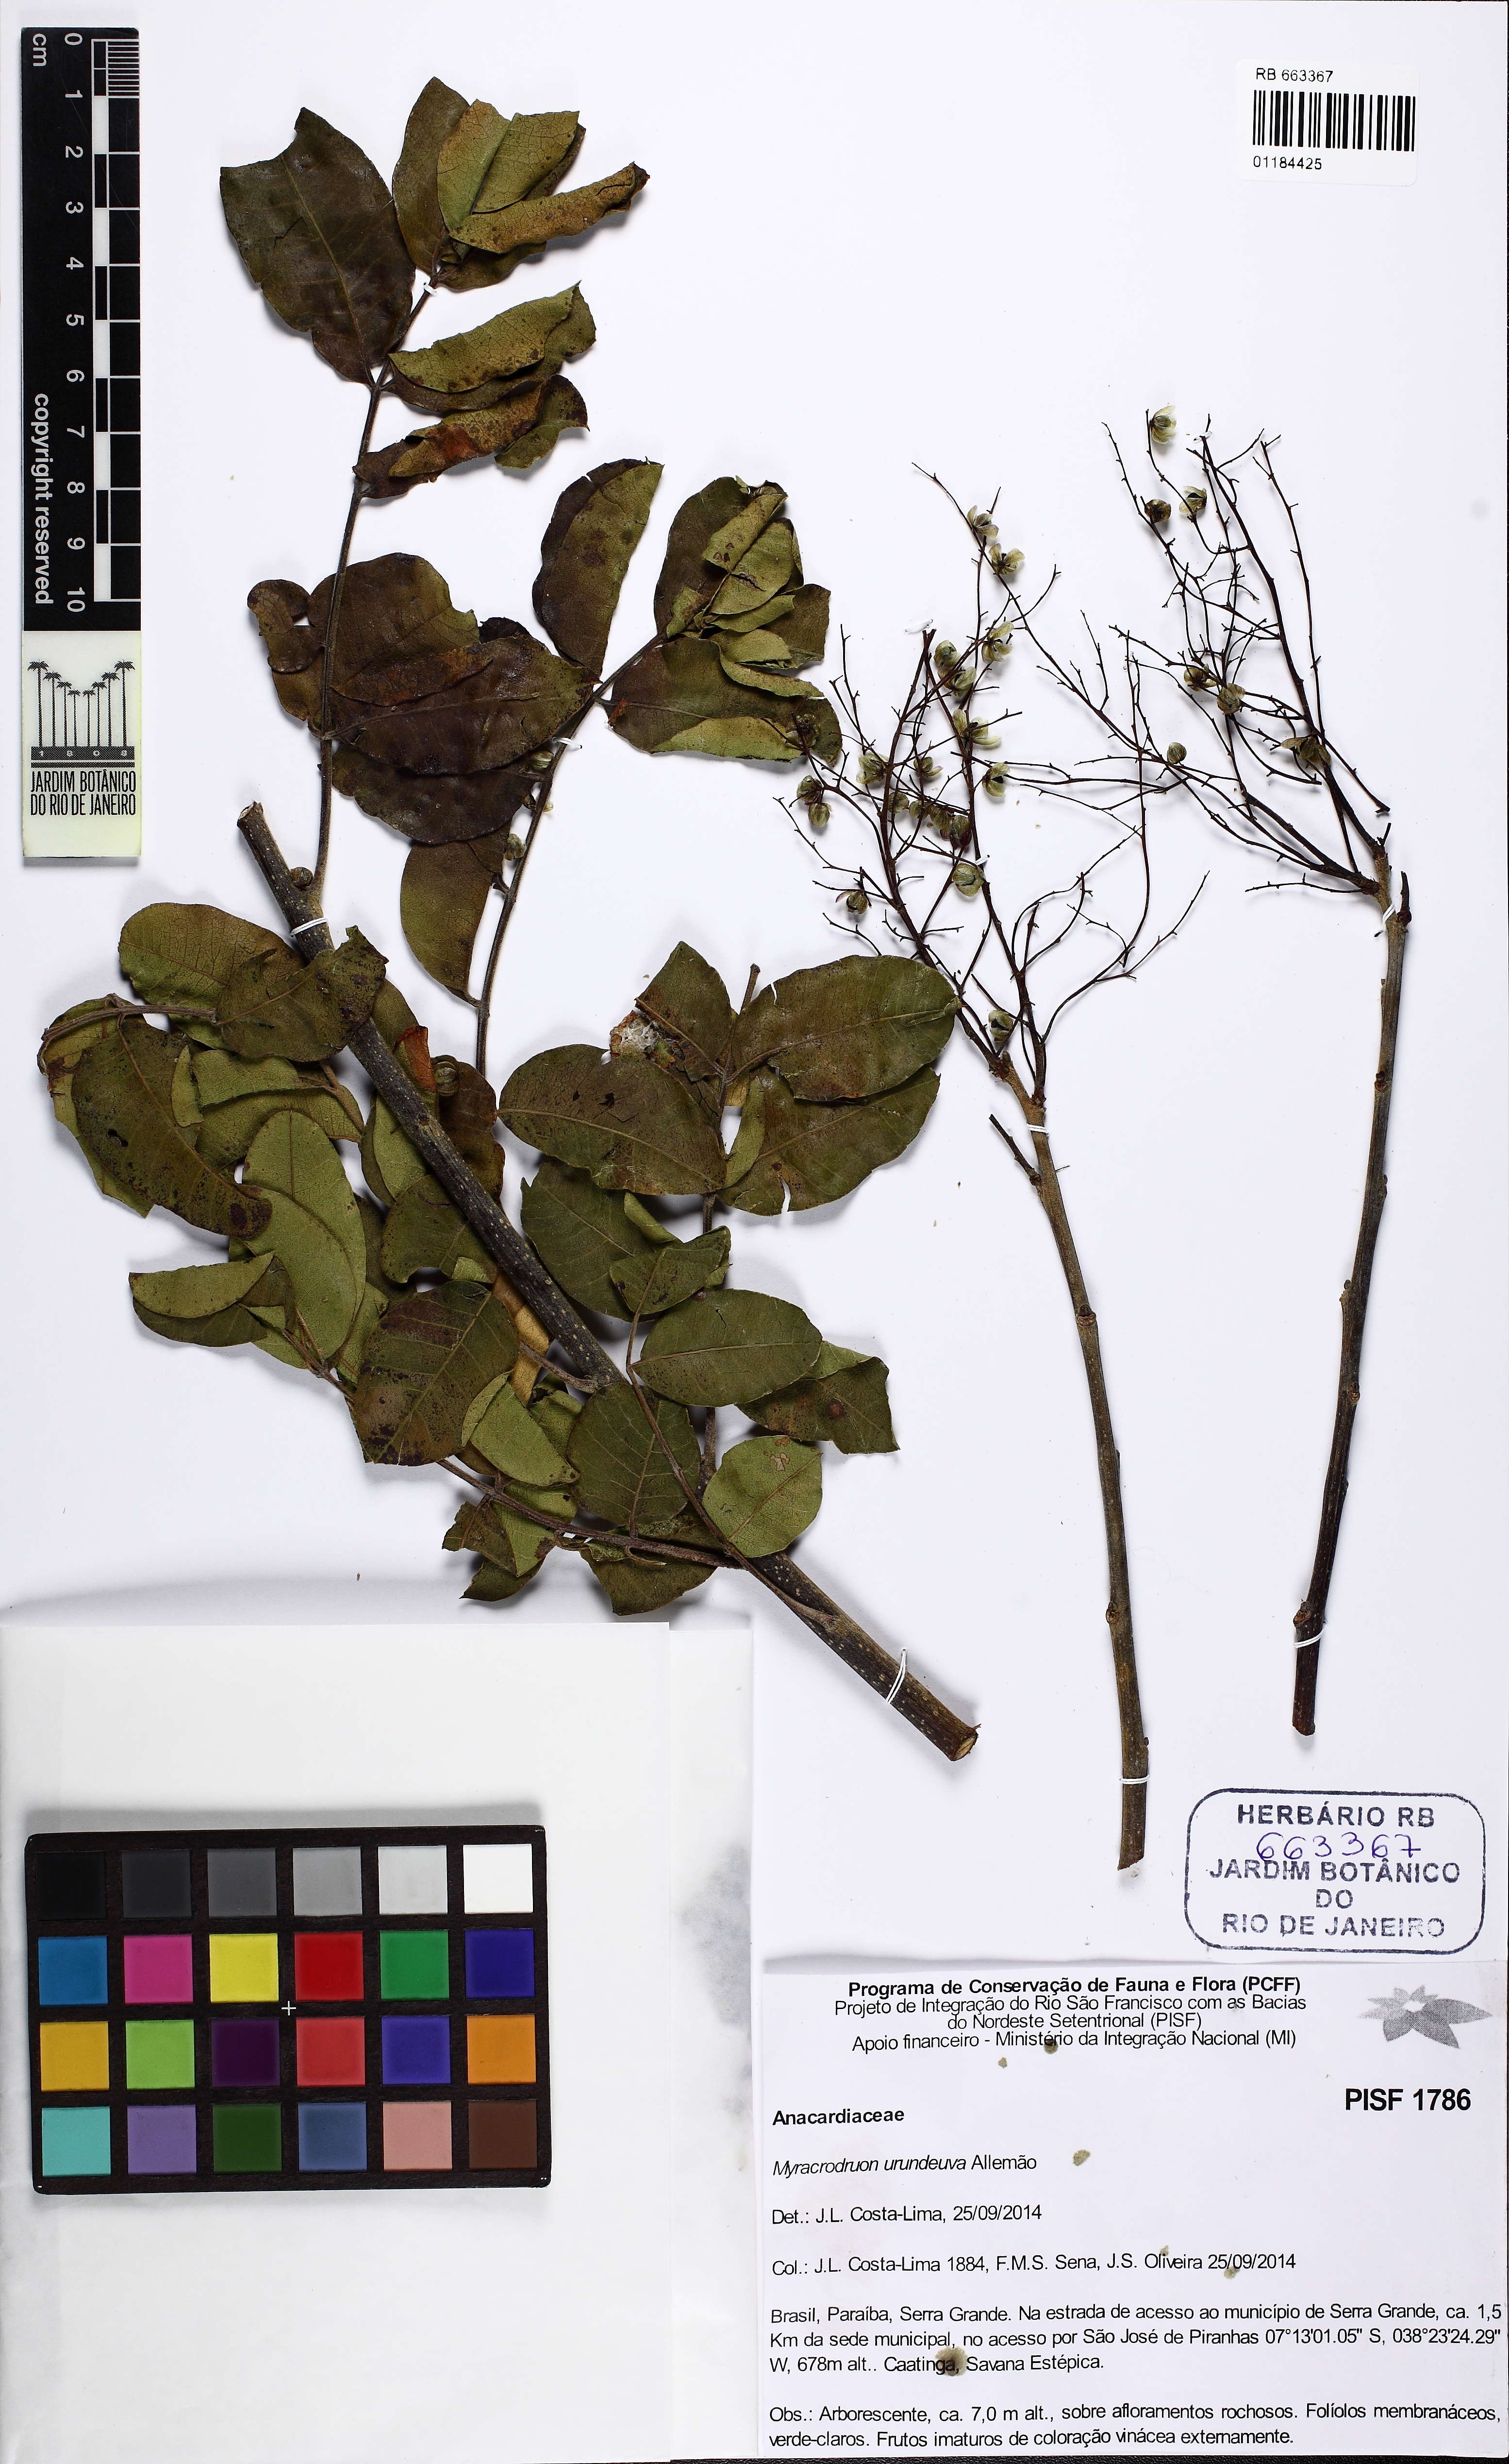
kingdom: Plantae
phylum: Tracheophyta
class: Magnoliopsida
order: Sapindales
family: Anacardiaceae
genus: Myracrodruon
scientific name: Myracrodruon urundeuva
